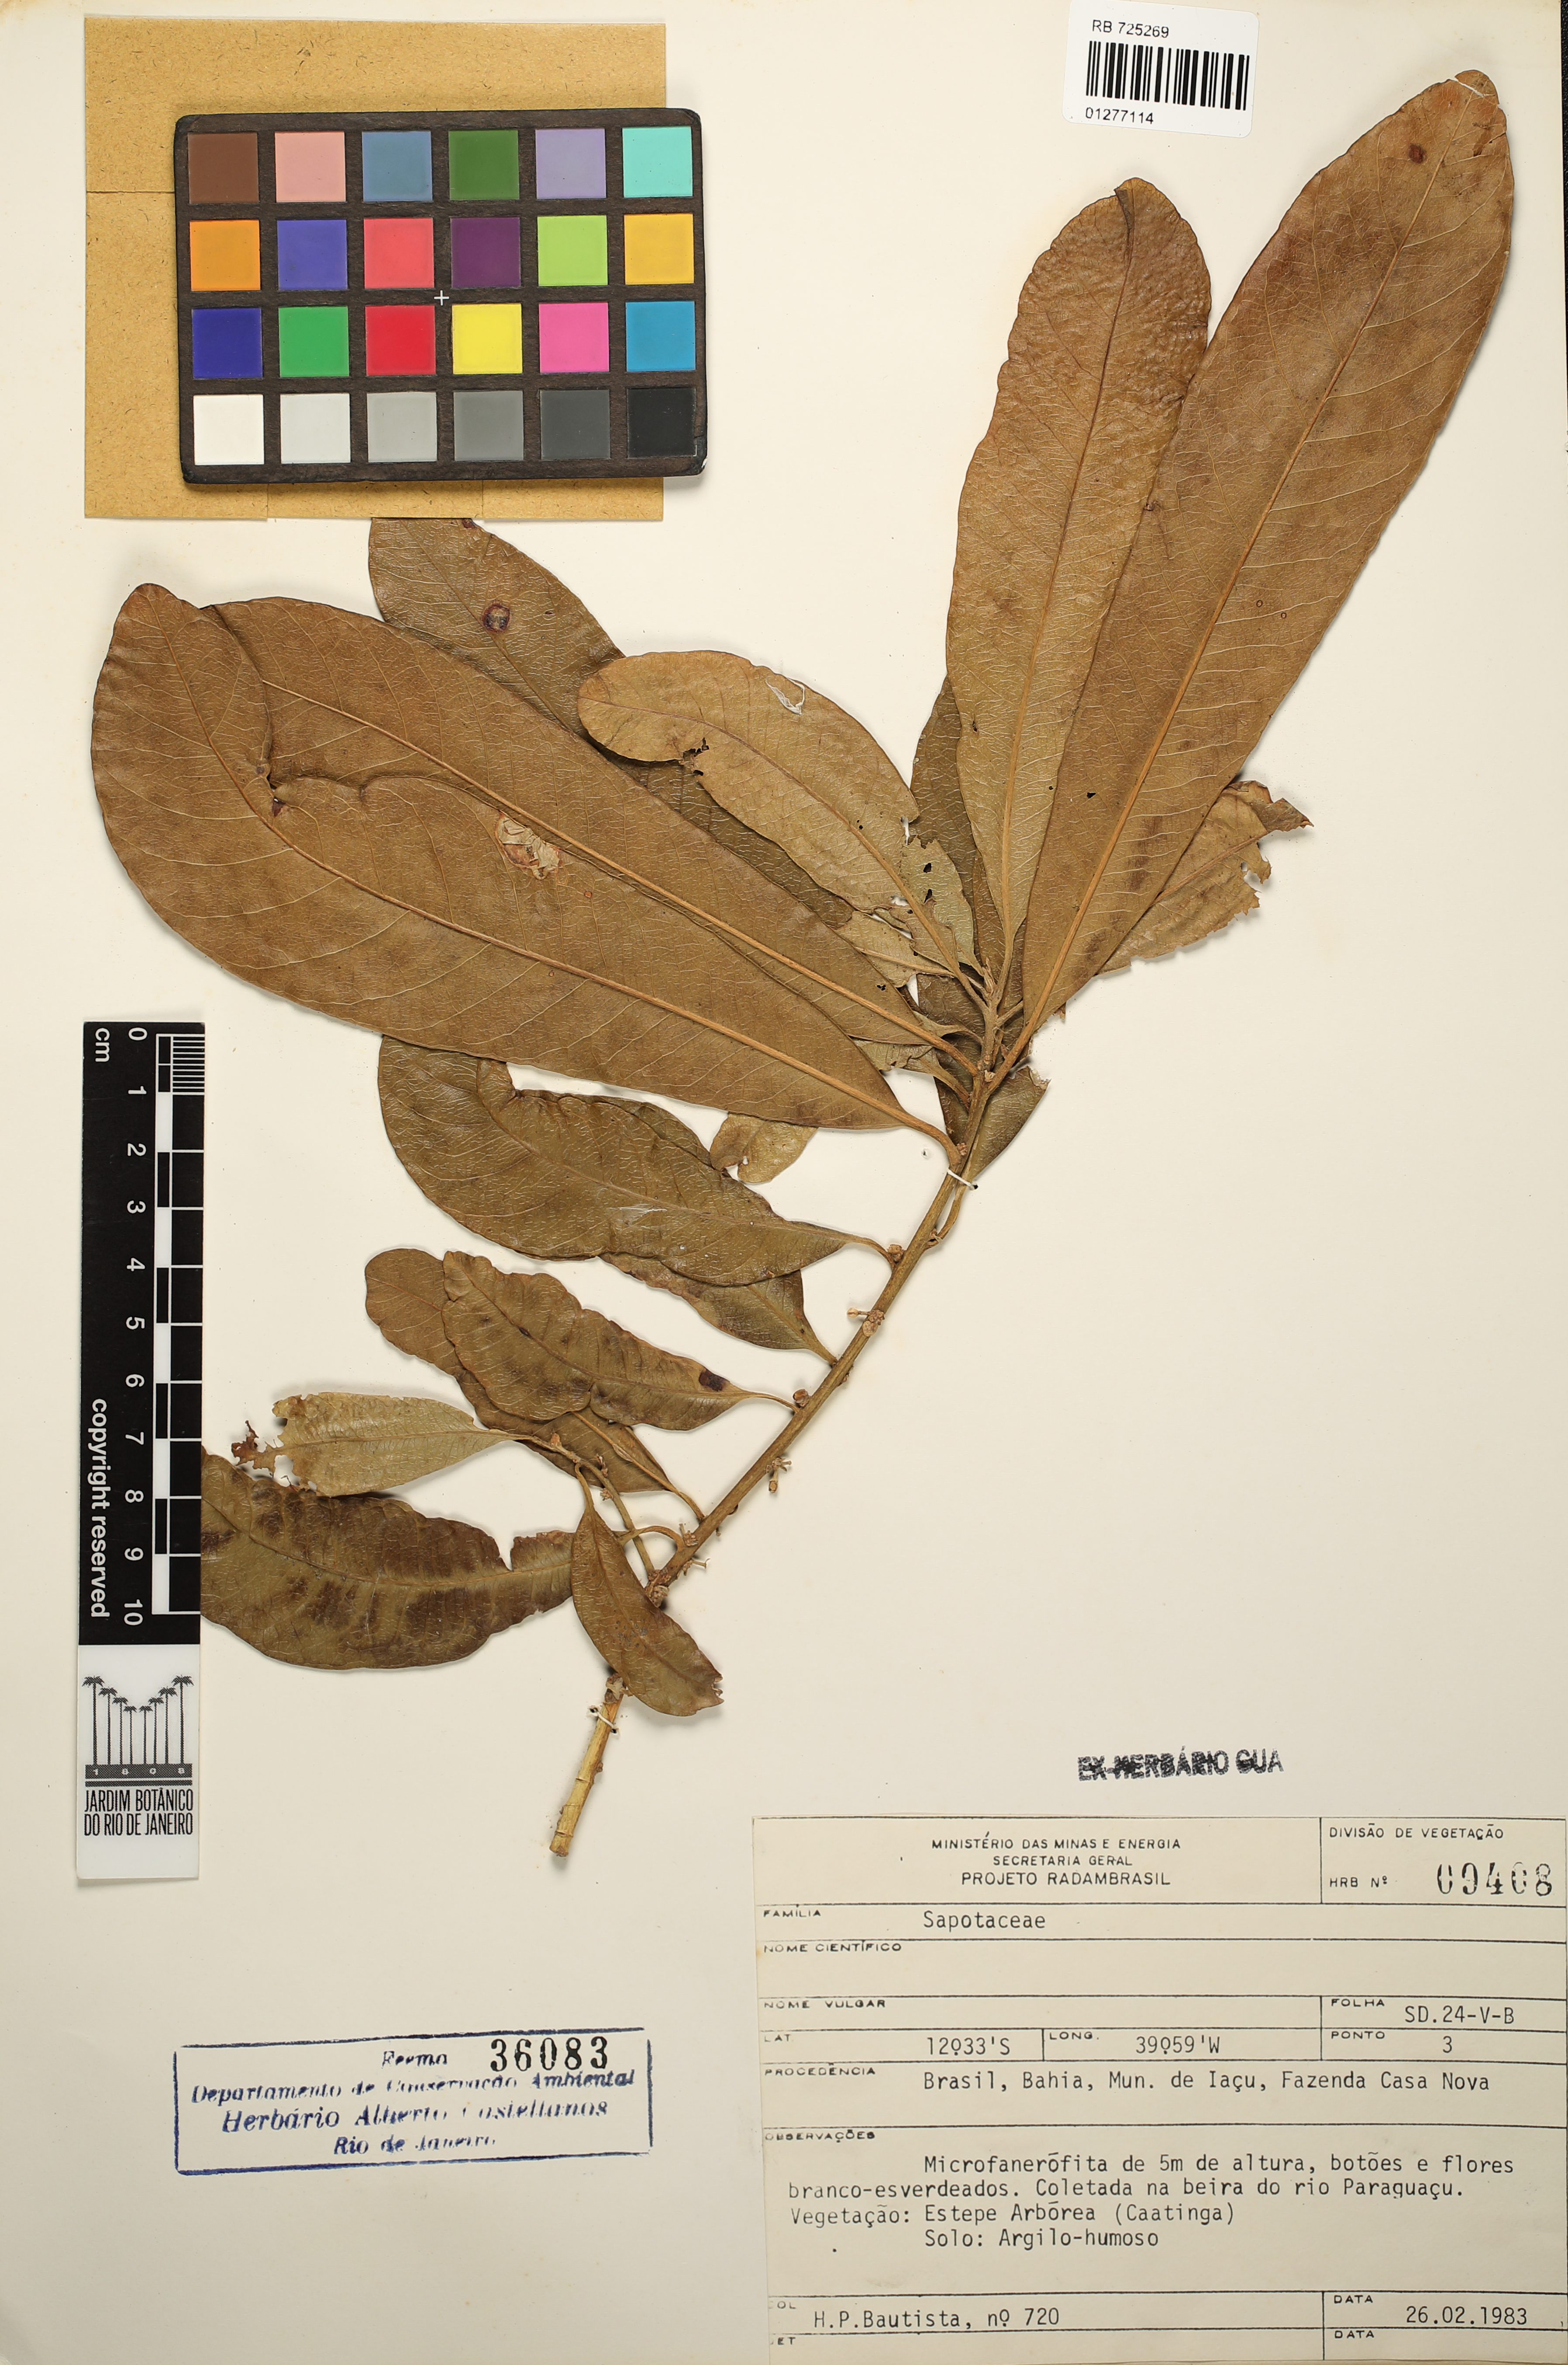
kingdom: Plantae
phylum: Tracheophyta
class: Magnoliopsida
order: Ericales
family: Sapotaceae
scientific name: Sapotaceae
